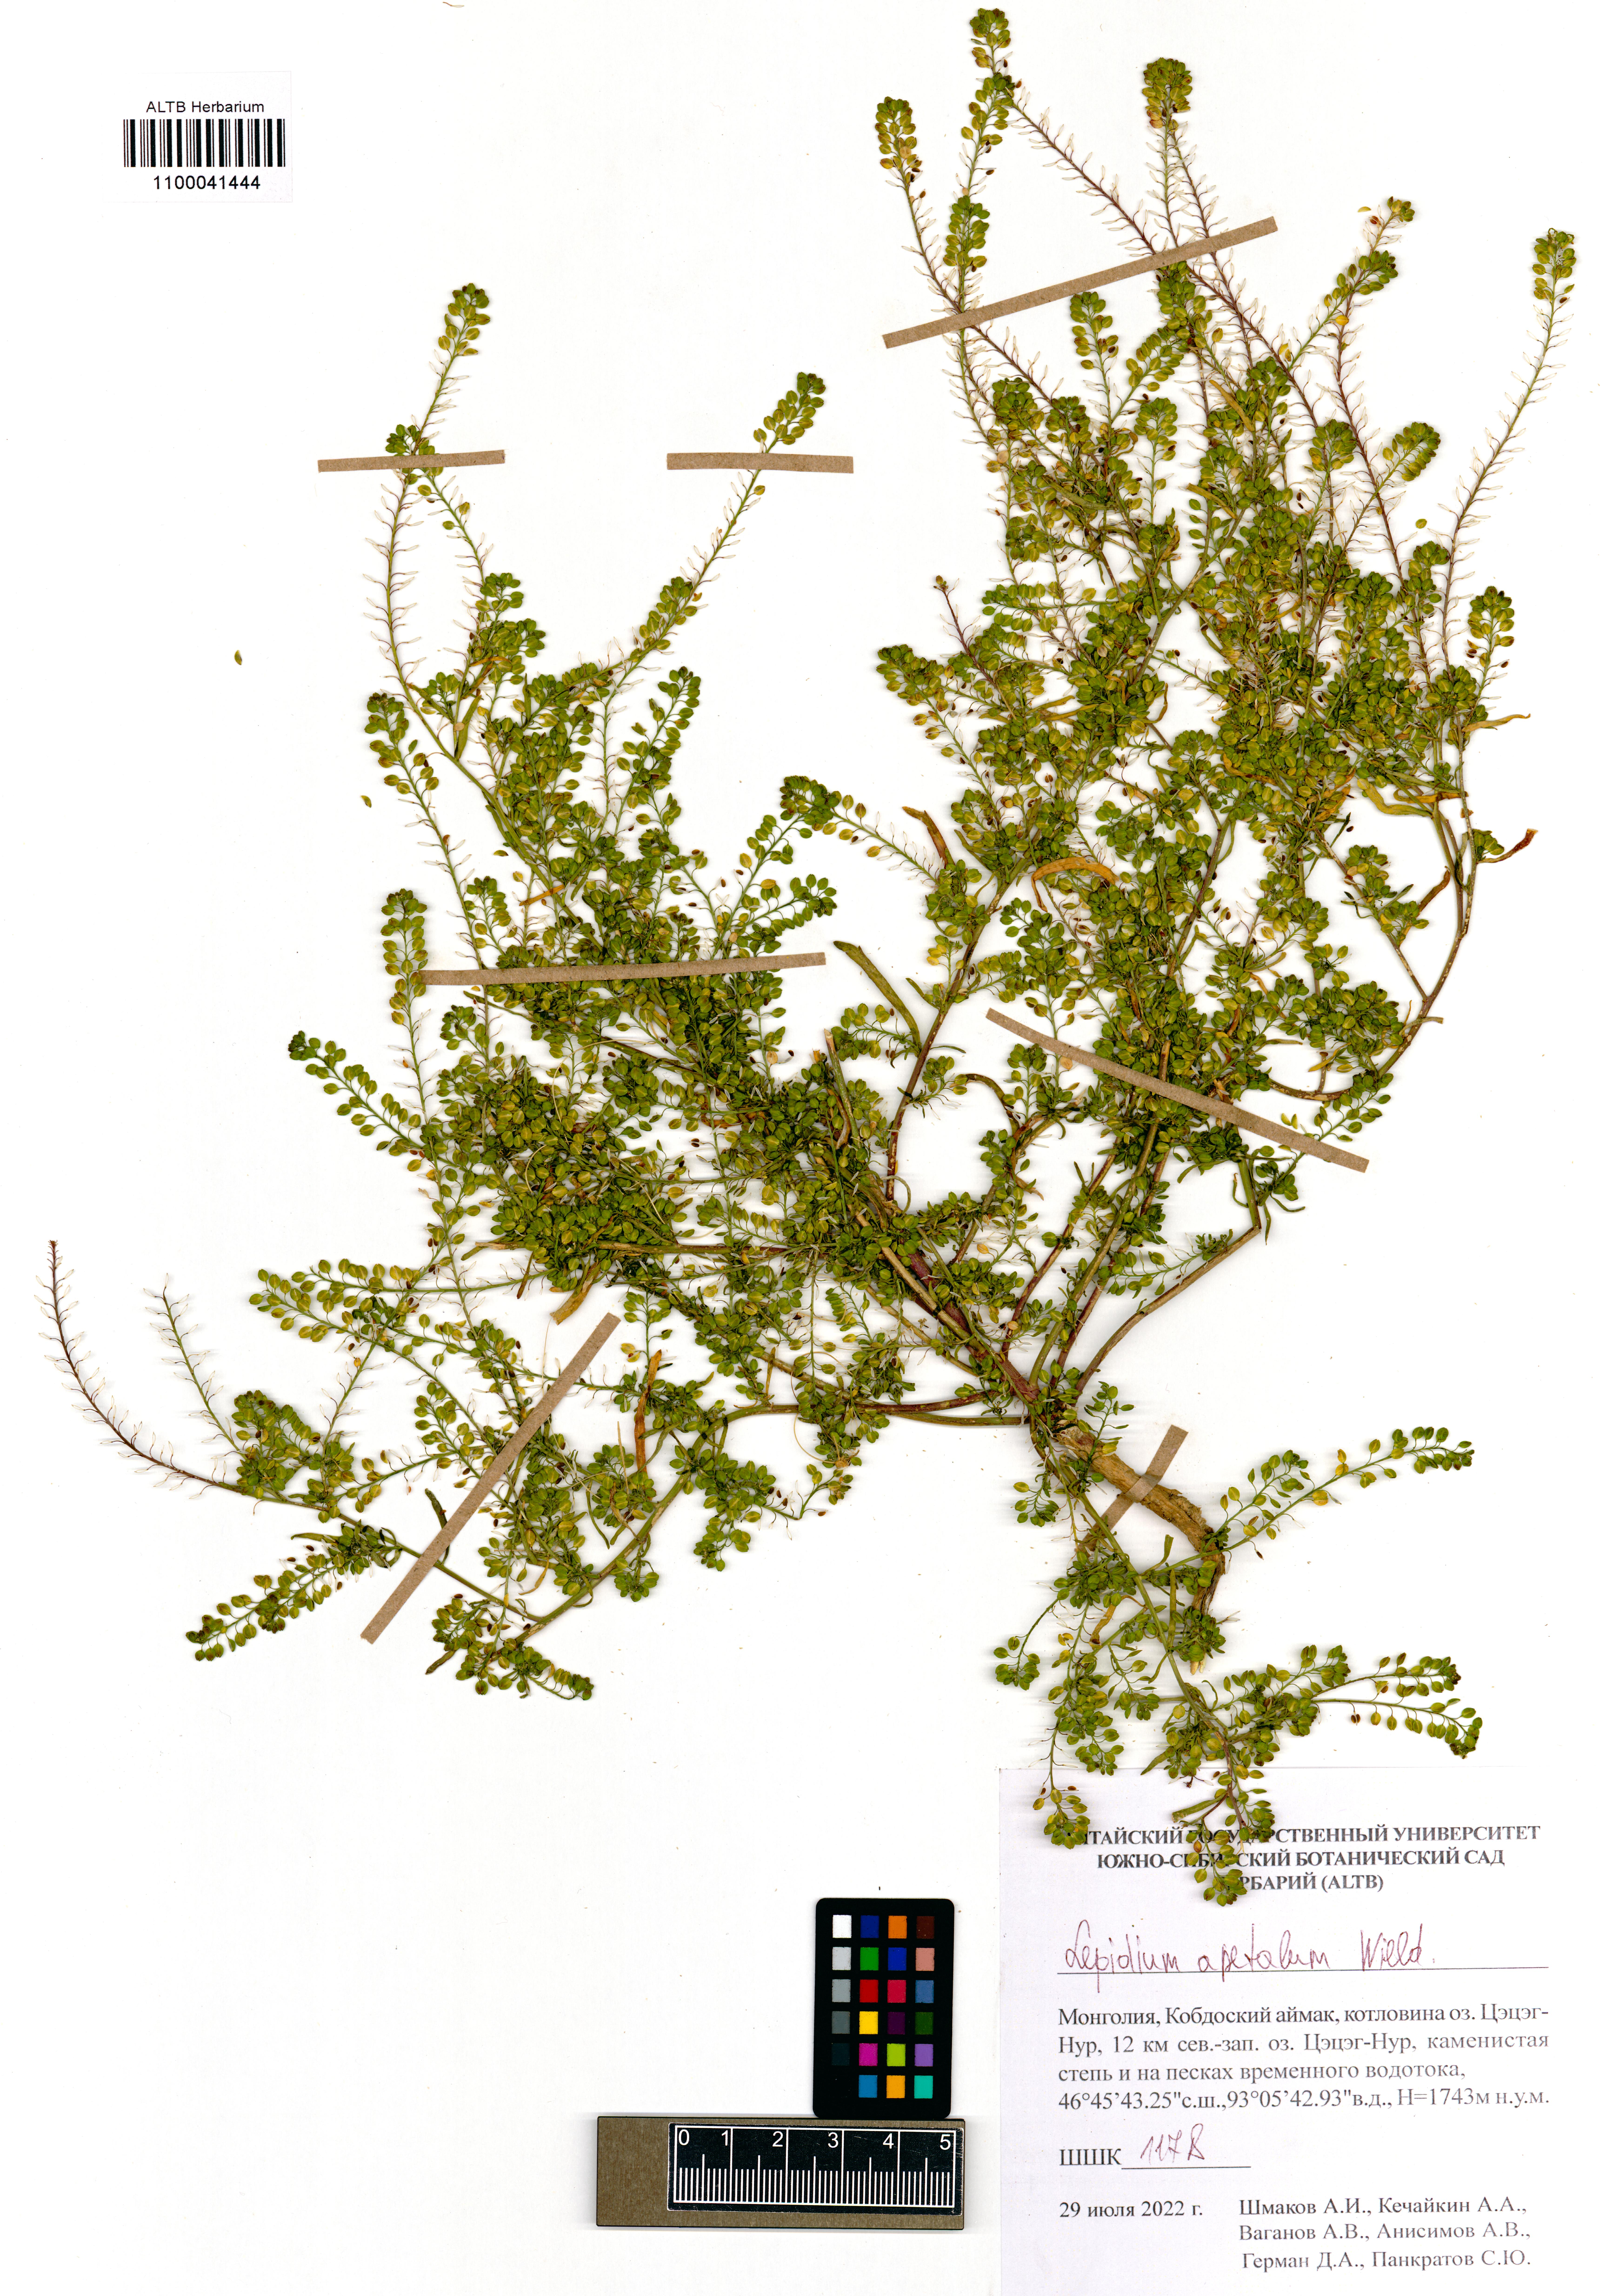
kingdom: Plantae
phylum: Tracheophyta
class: Magnoliopsida
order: Brassicales
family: Brassicaceae
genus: Lepidium
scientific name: Lepidium apetalum
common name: Pepperweed
